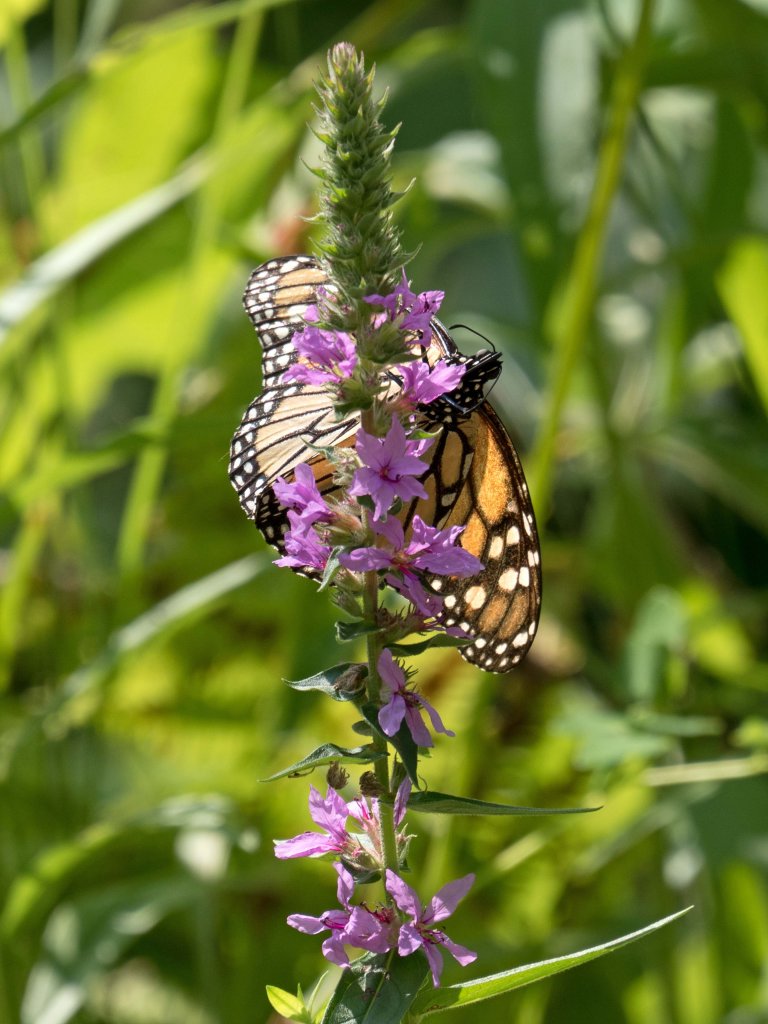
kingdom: Animalia
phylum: Arthropoda
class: Insecta
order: Lepidoptera
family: Nymphalidae
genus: Danaus
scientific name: Danaus plexippus
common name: Monarch
